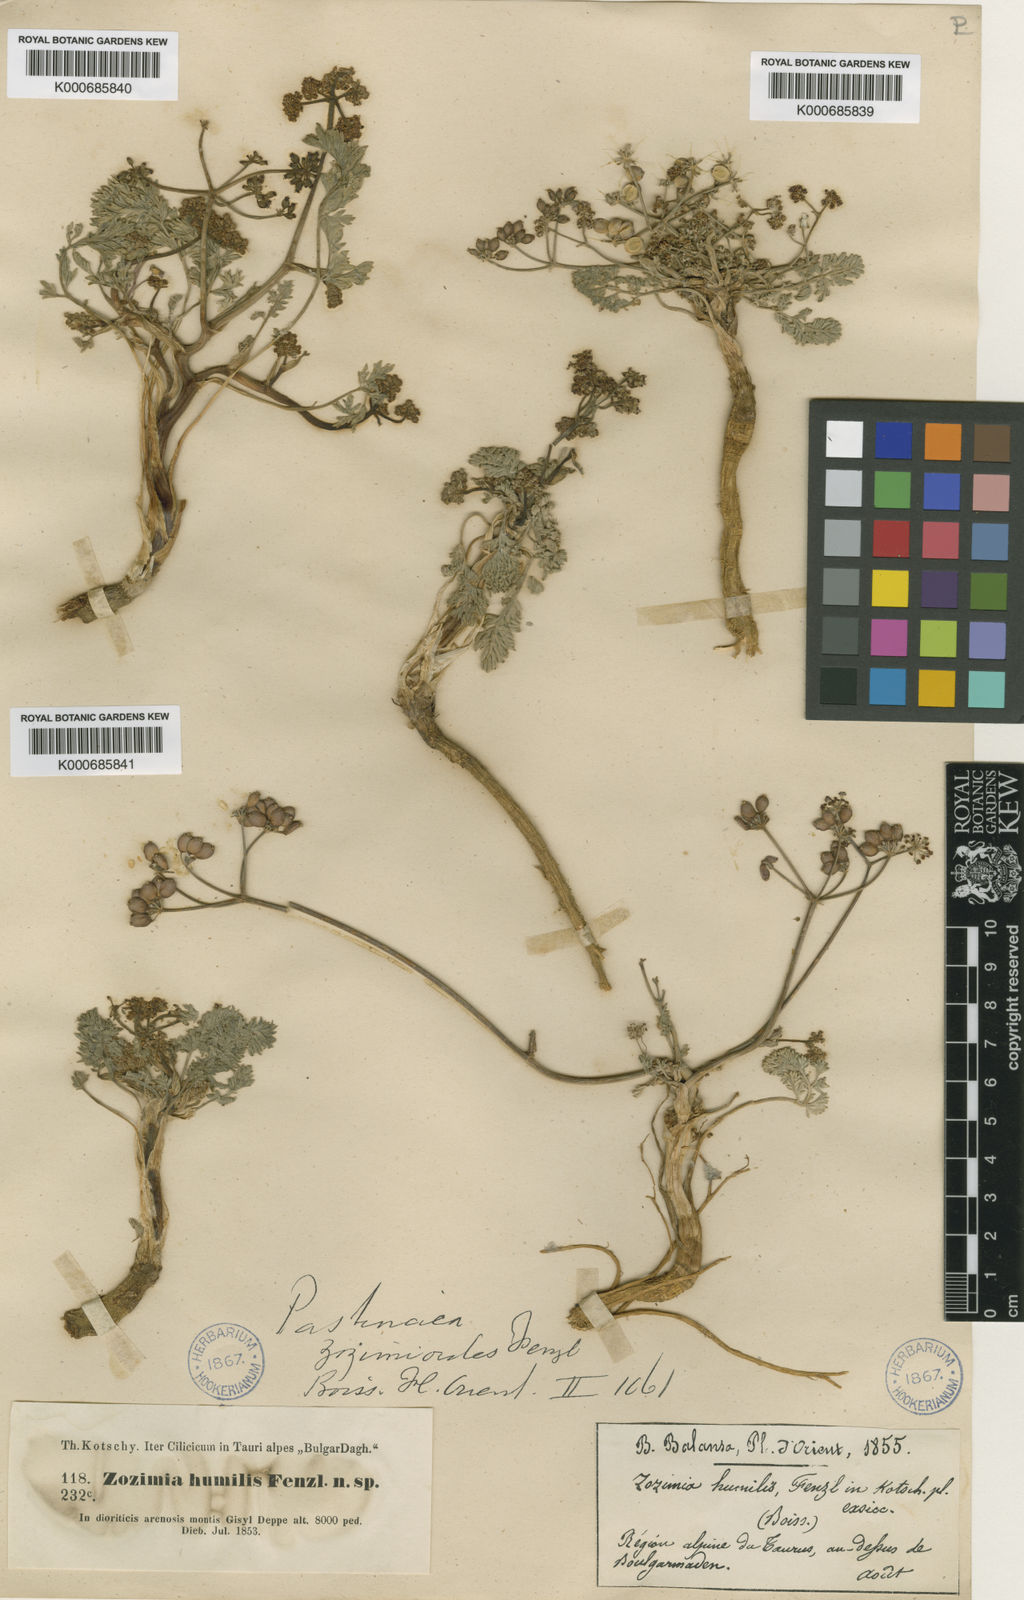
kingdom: Plantae
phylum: Tracheophyta
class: Magnoliopsida
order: Apiales
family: Apiaceae
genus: Pastinaca
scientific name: Pastinaca zozimoides
